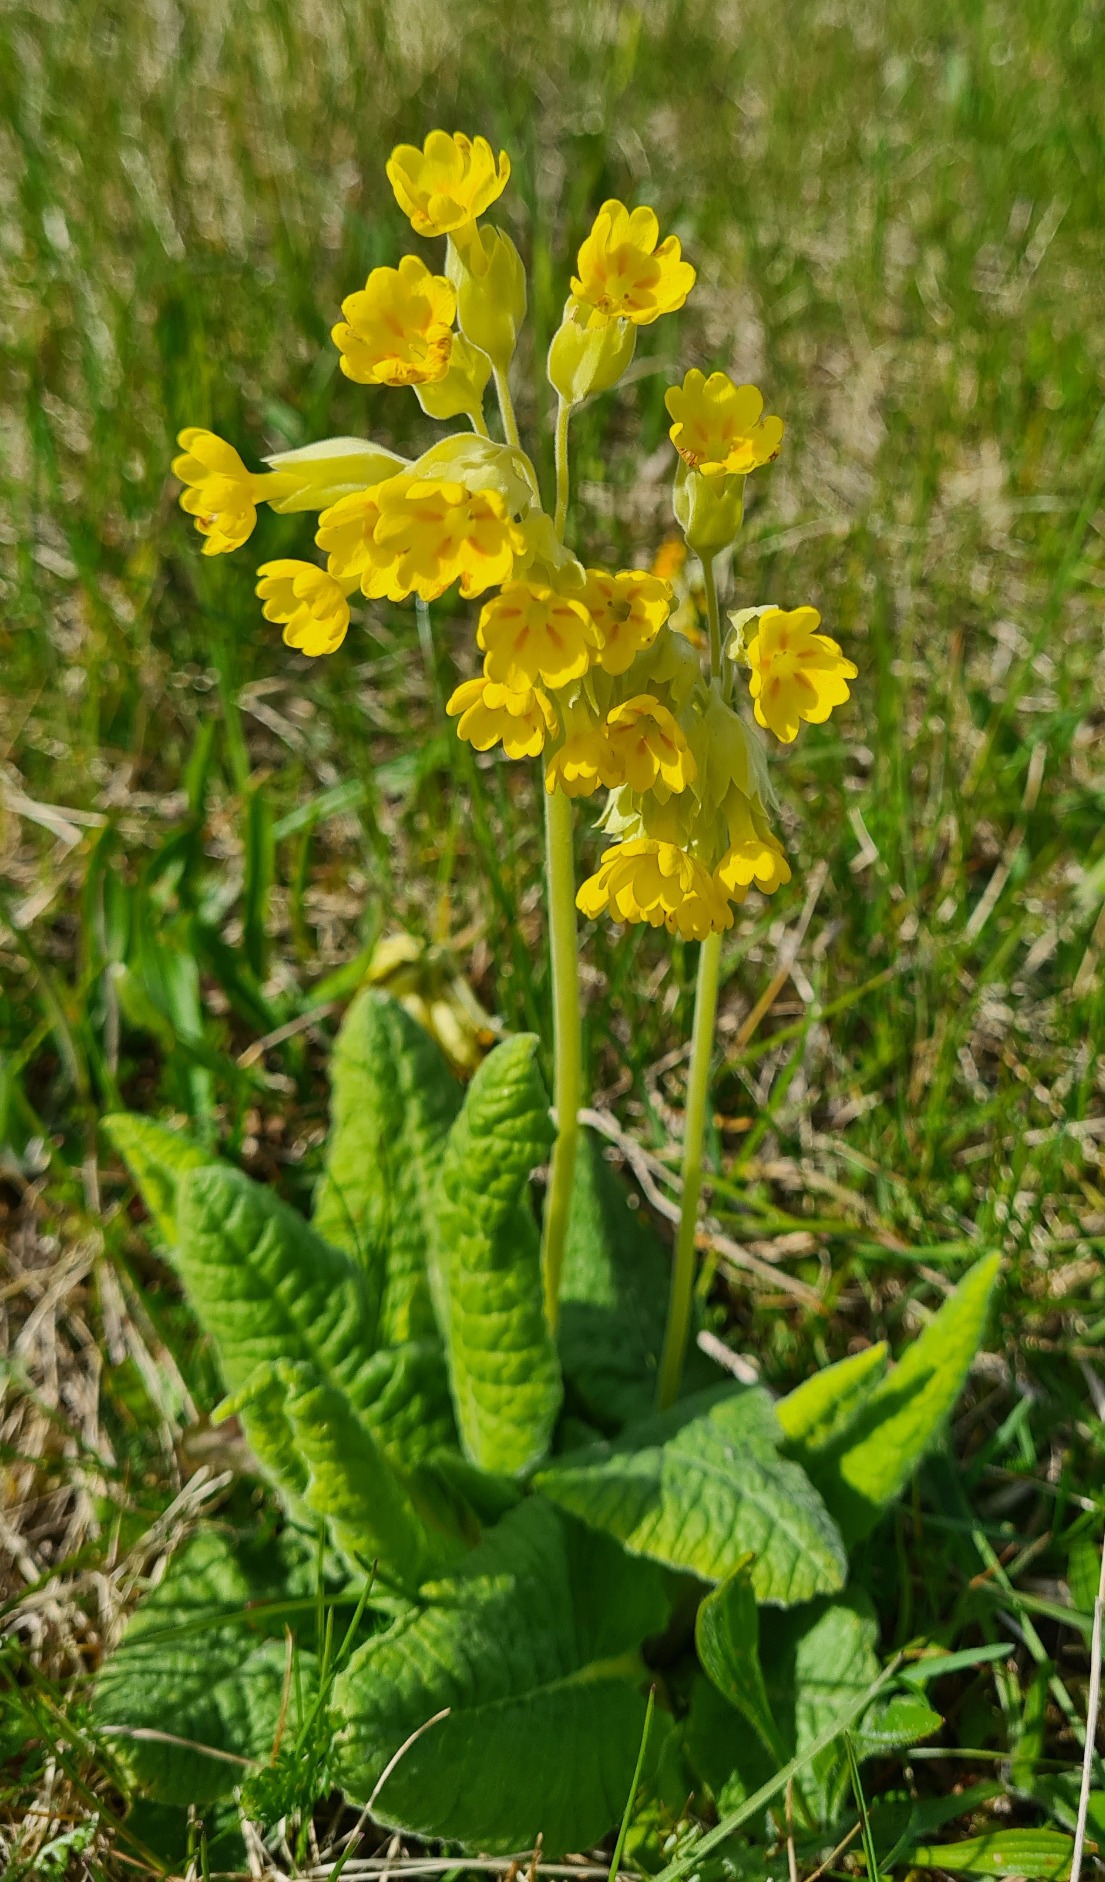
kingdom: Plantae
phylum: Tracheophyta
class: Magnoliopsida
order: Ericales
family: Primulaceae
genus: Primula
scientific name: Primula veris
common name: Hulkravet kodriver
